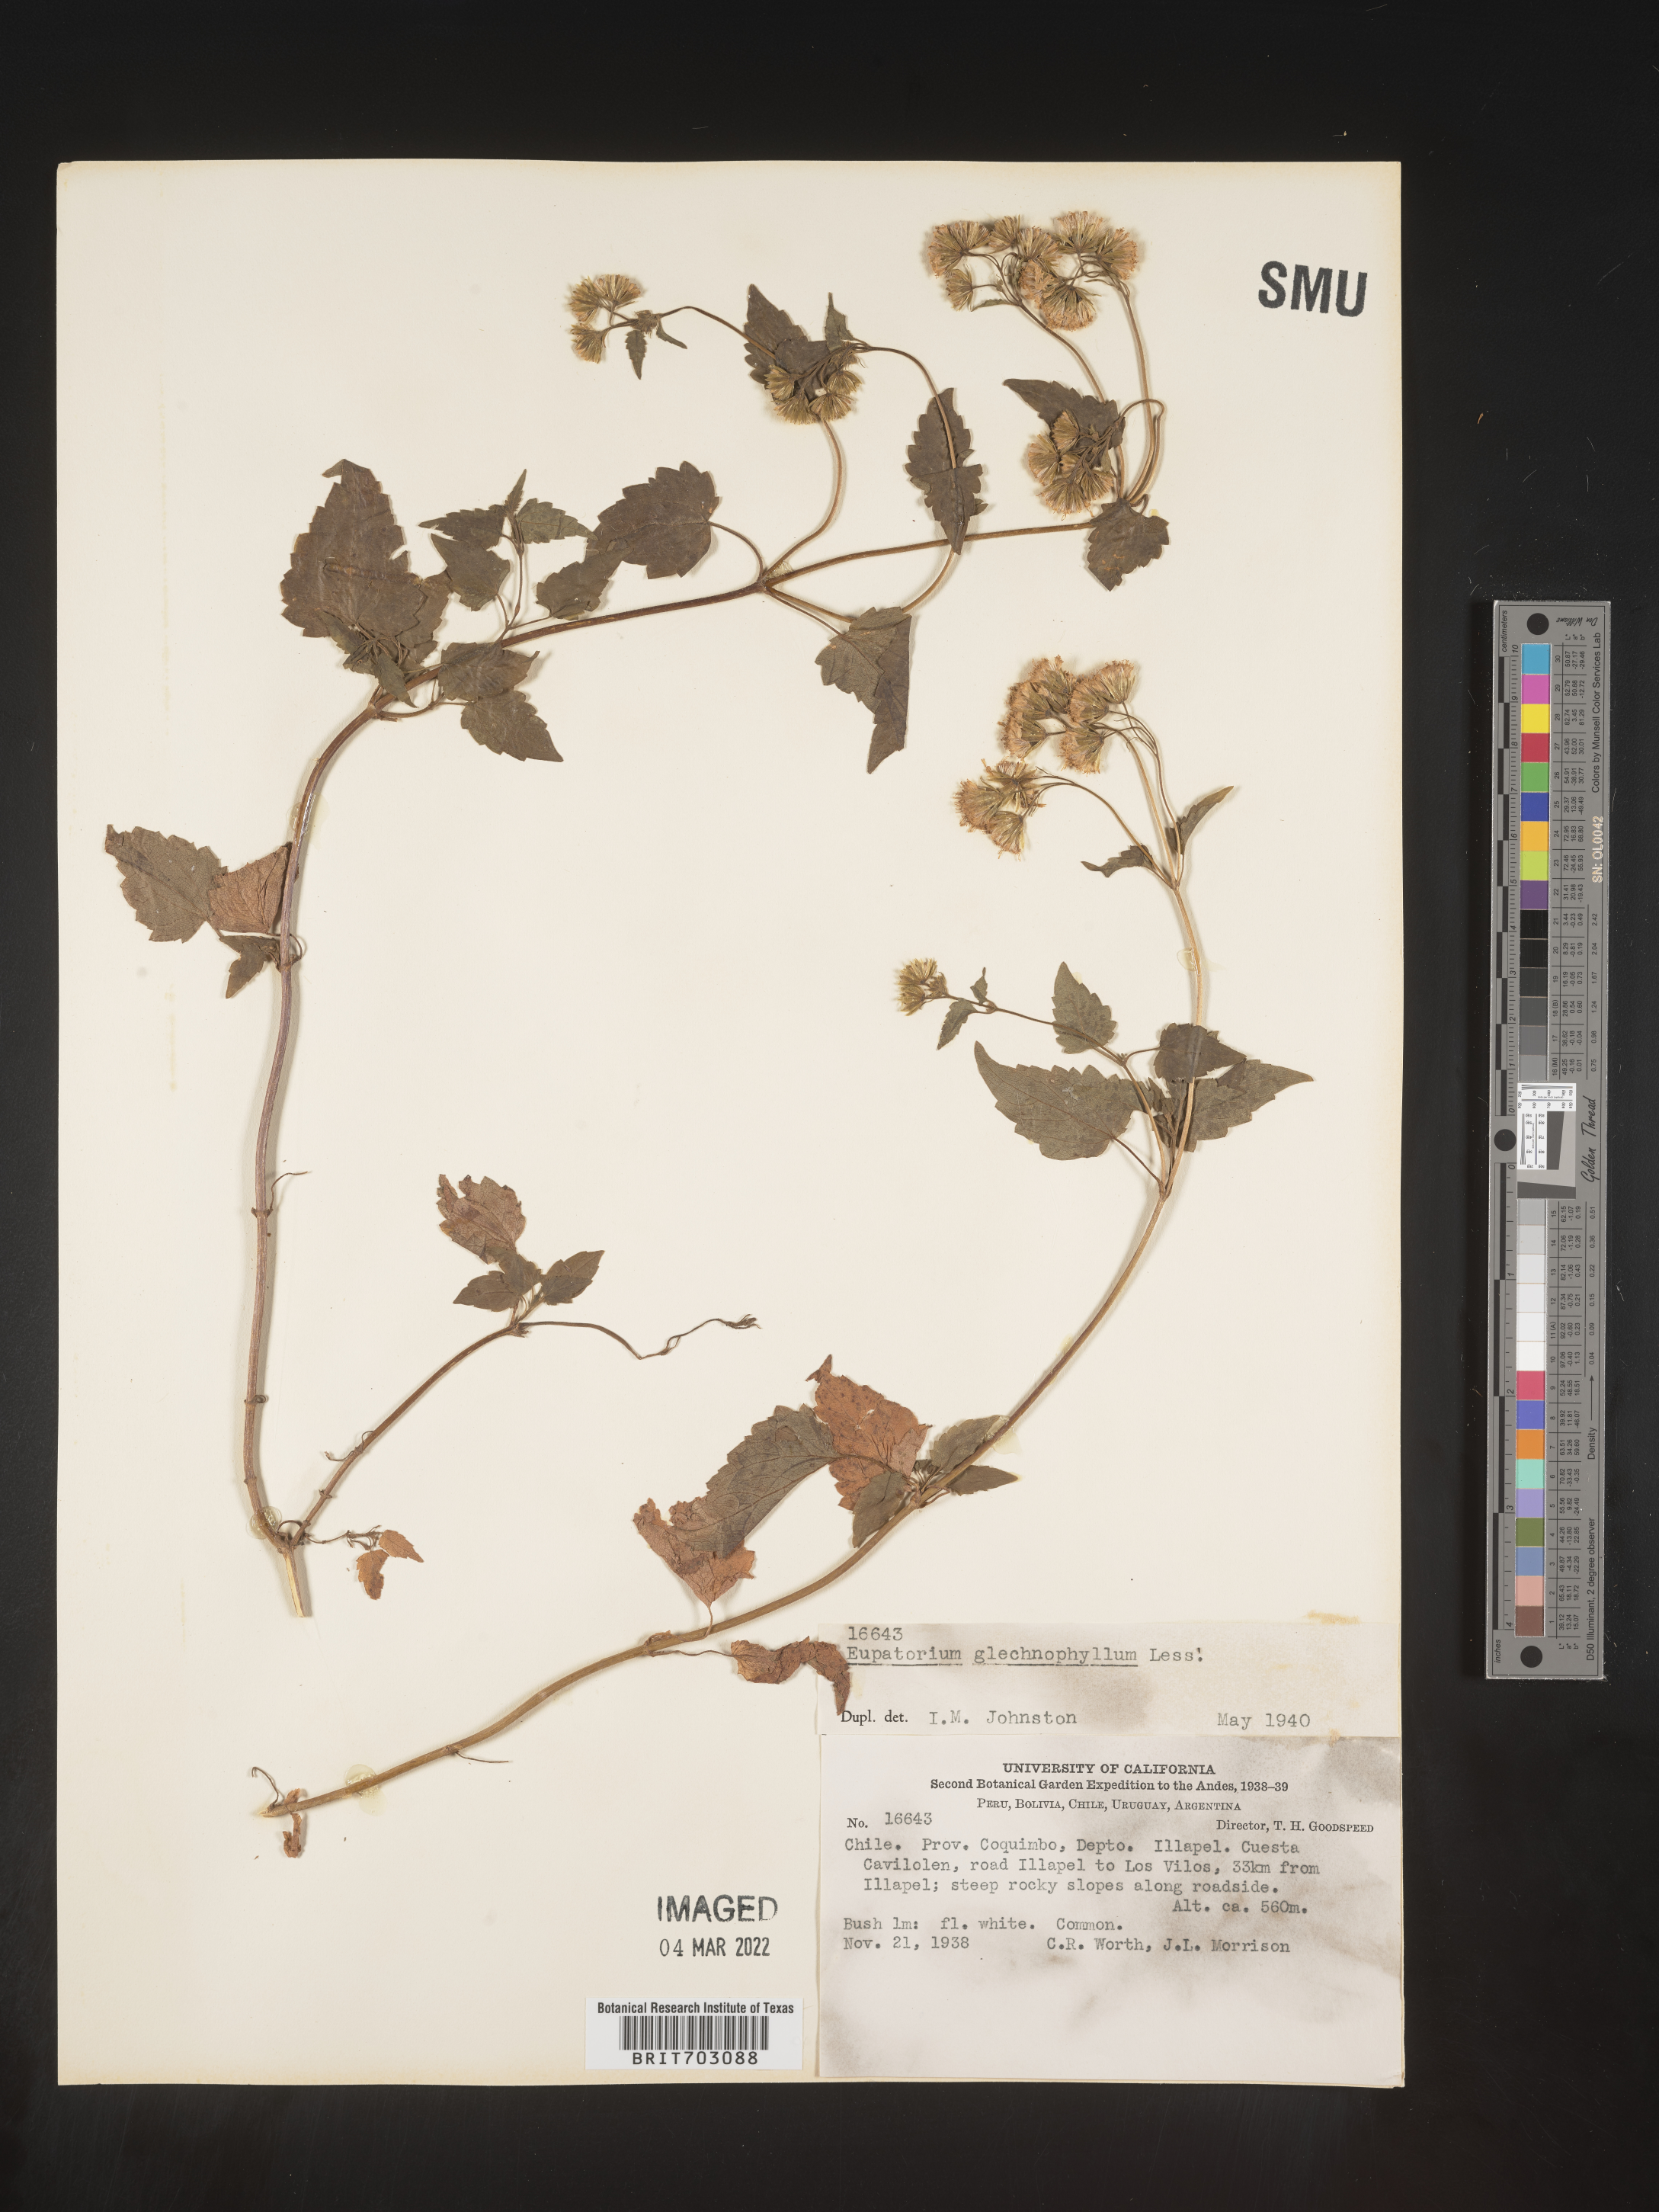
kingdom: Plantae
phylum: Tracheophyta
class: Magnoliopsida
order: Asterales
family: Asteraceae
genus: Eupatorium
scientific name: Eupatorium
